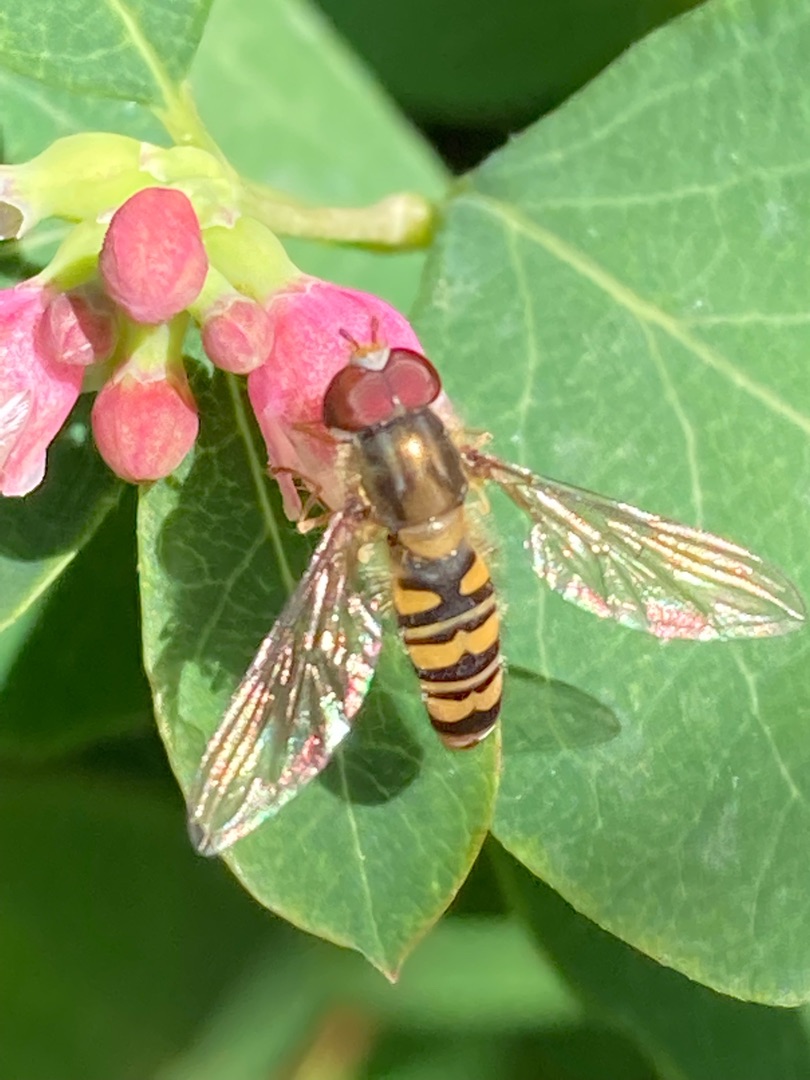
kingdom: Animalia
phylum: Arthropoda
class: Insecta
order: Diptera
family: Syrphidae
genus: Episyrphus
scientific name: Episyrphus balteatus
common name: Dobbeltbåndet svirreflue
